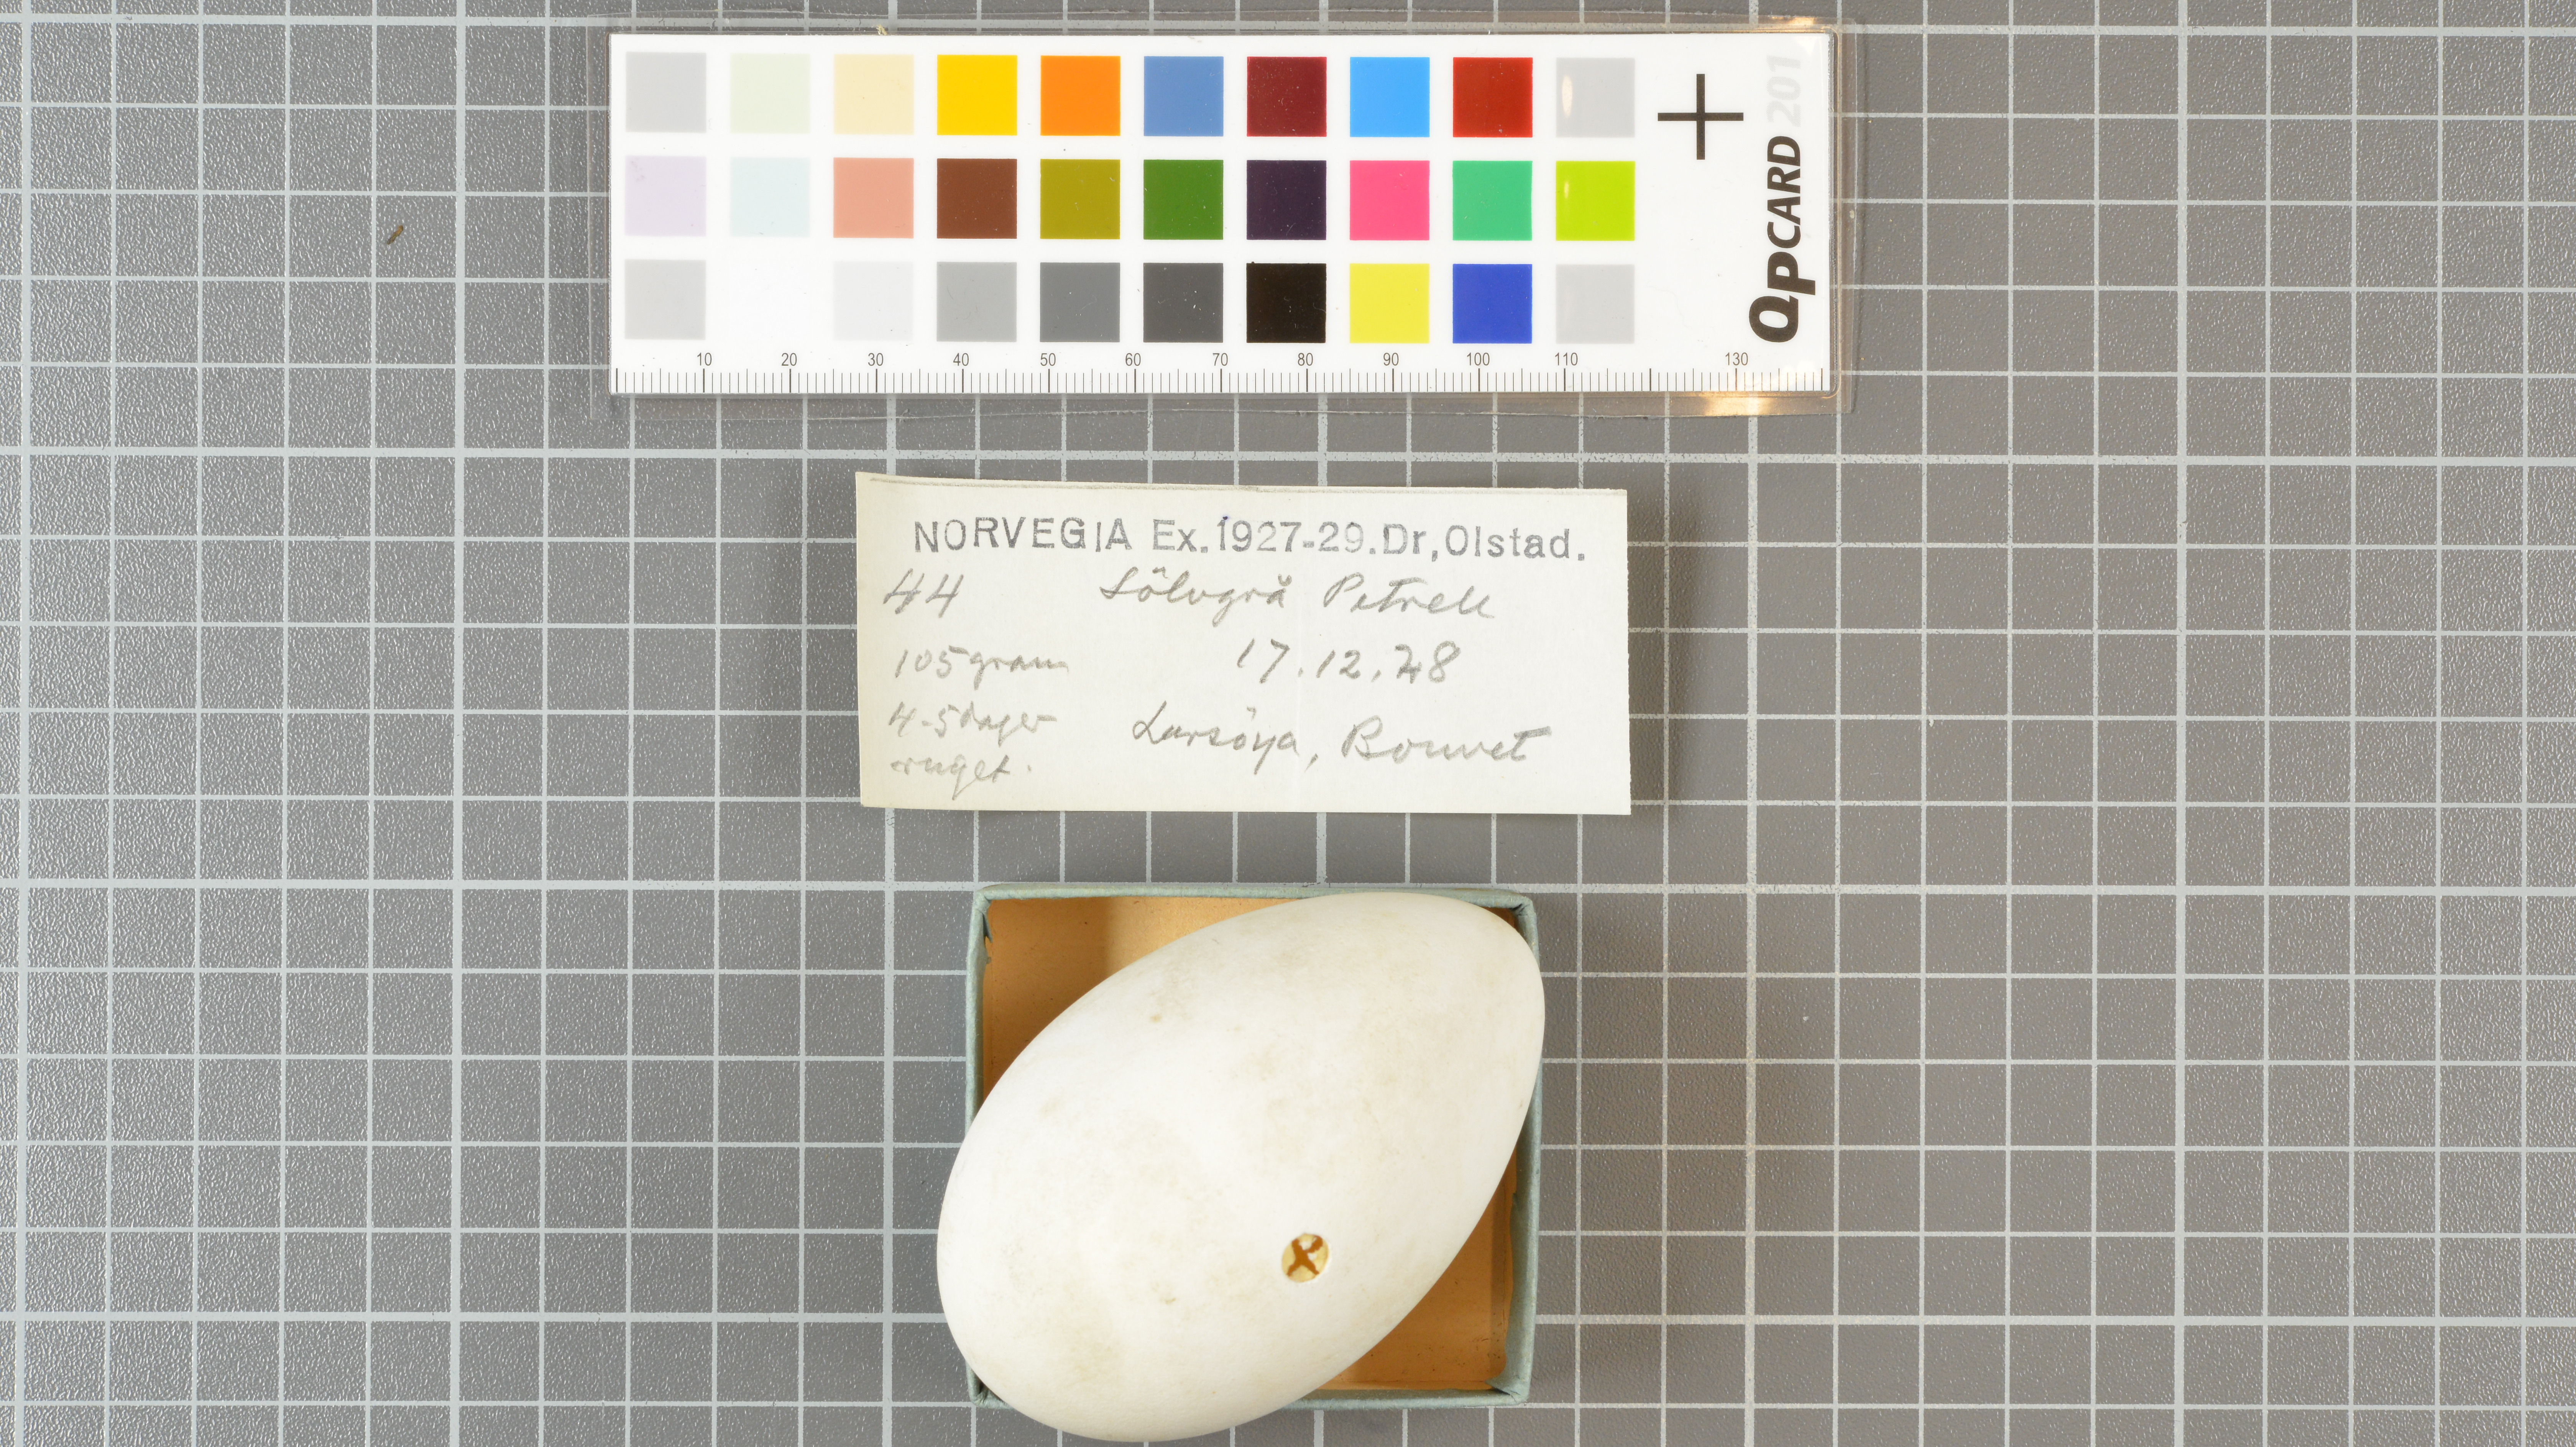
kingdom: Animalia
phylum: Chordata
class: Aves
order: Procellariiformes
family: Procellariidae
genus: Fulmarus
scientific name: Fulmarus glacialoides
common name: Southern fulmar
